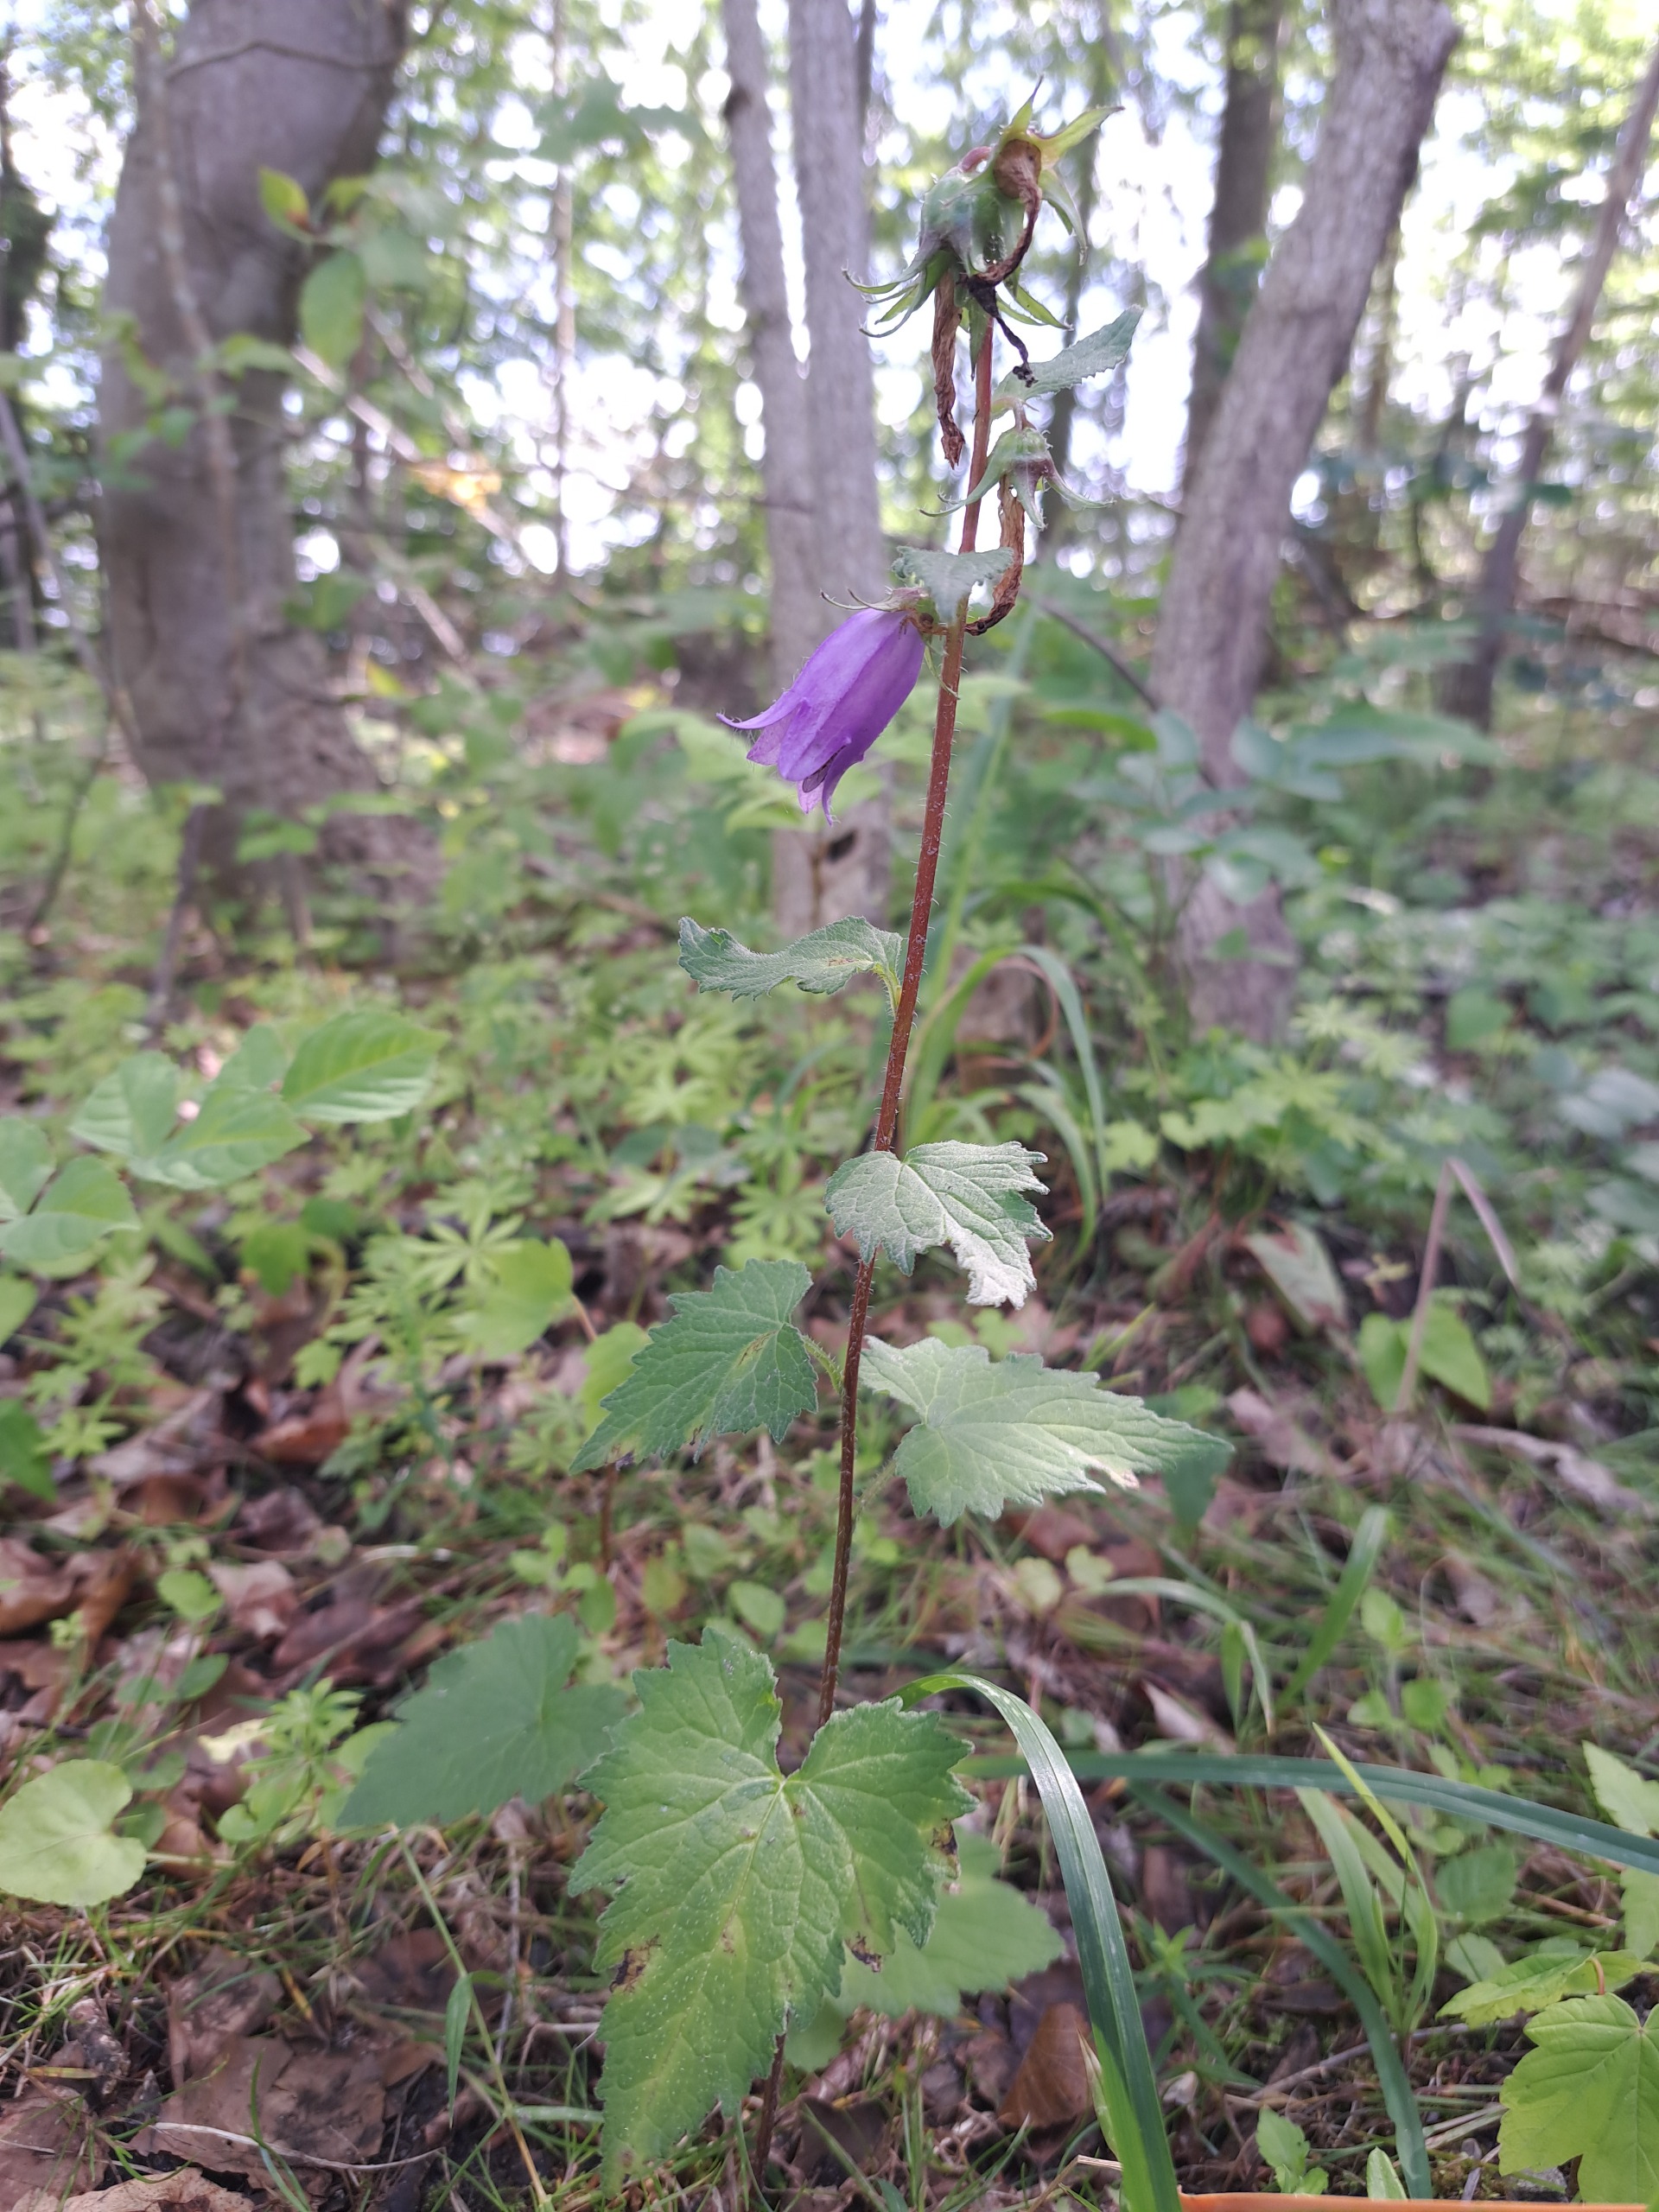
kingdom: Plantae
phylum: Tracheophyta
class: Magnoliopsida
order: Asterales
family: Campanulaceae
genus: Campanula
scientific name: Campanula trachelium
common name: Nælde-klokke
